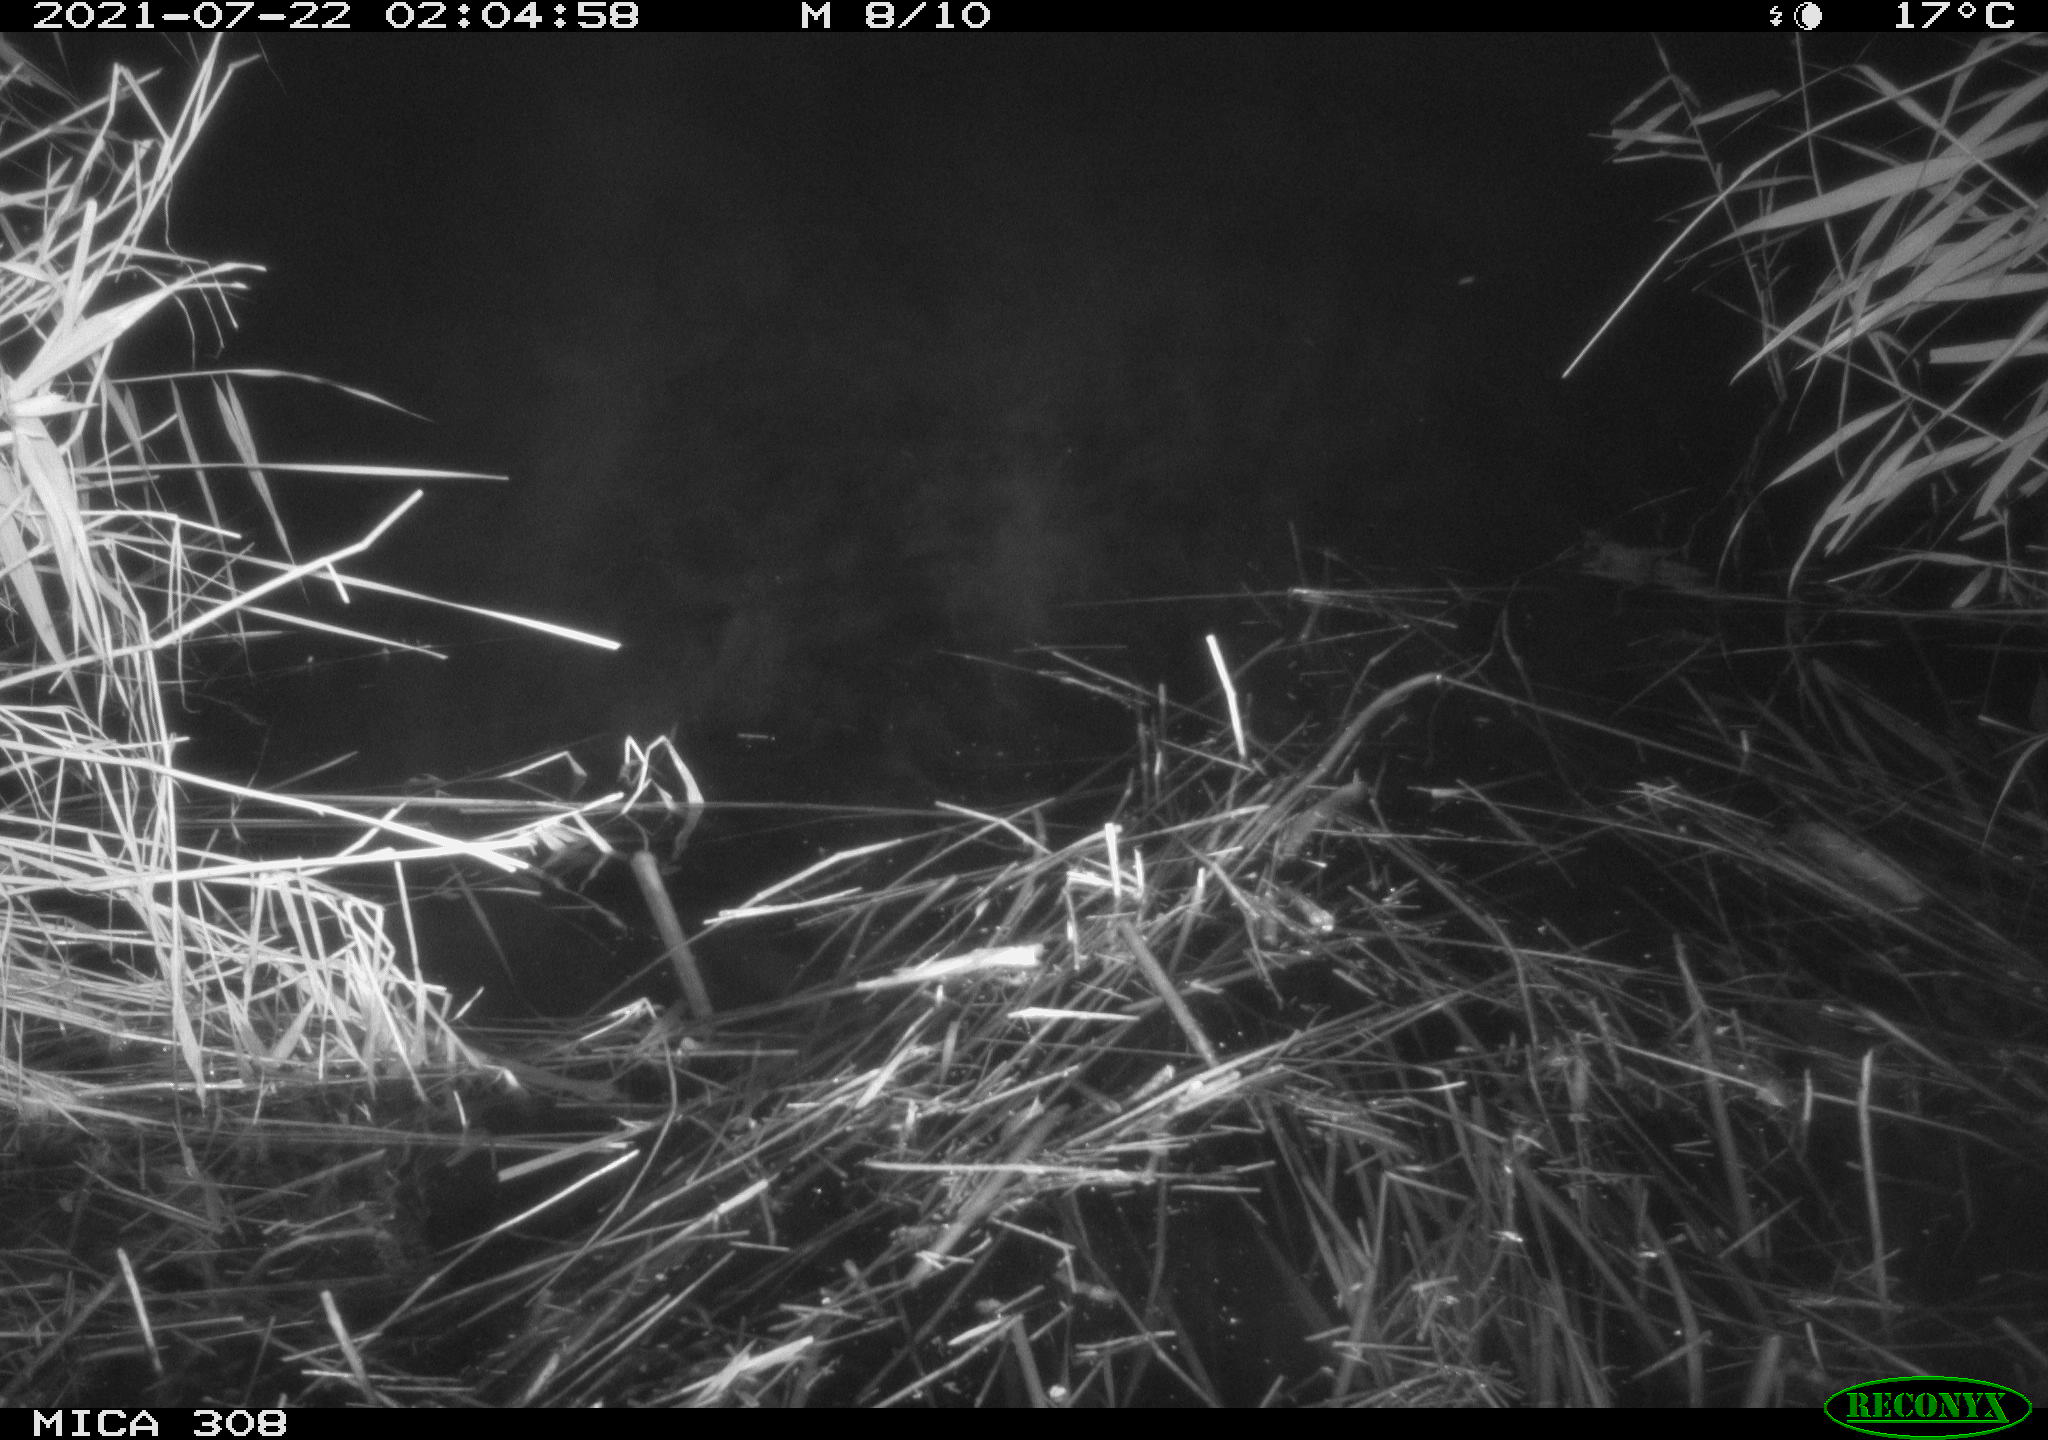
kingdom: Animalia
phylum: Chordata
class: Mammalia
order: Rodentia
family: Muridae
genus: Rattus
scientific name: Rattus norvegicus
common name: Brown rat
